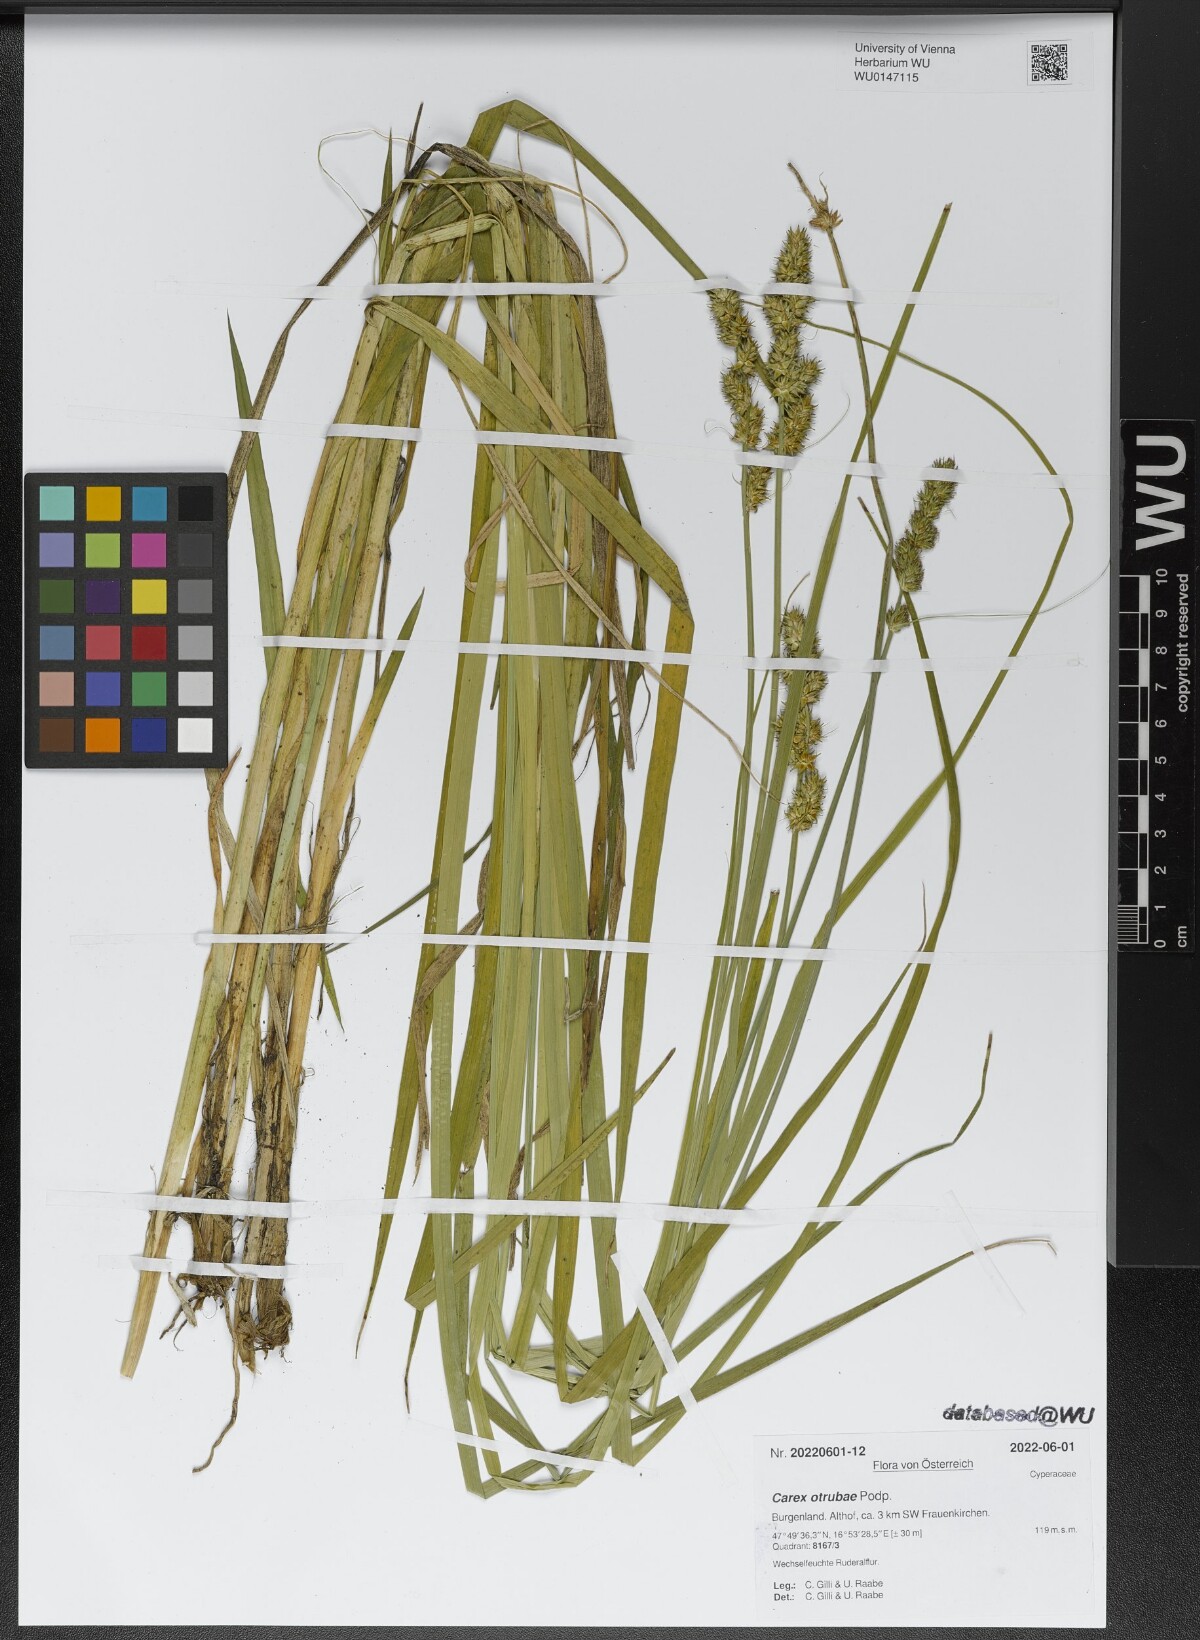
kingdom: Plantae
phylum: Tracheophyta
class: Liliopsida
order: Poales
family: Cyperaceae
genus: Carex
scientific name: Carex otrubae
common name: False fox-sedge
